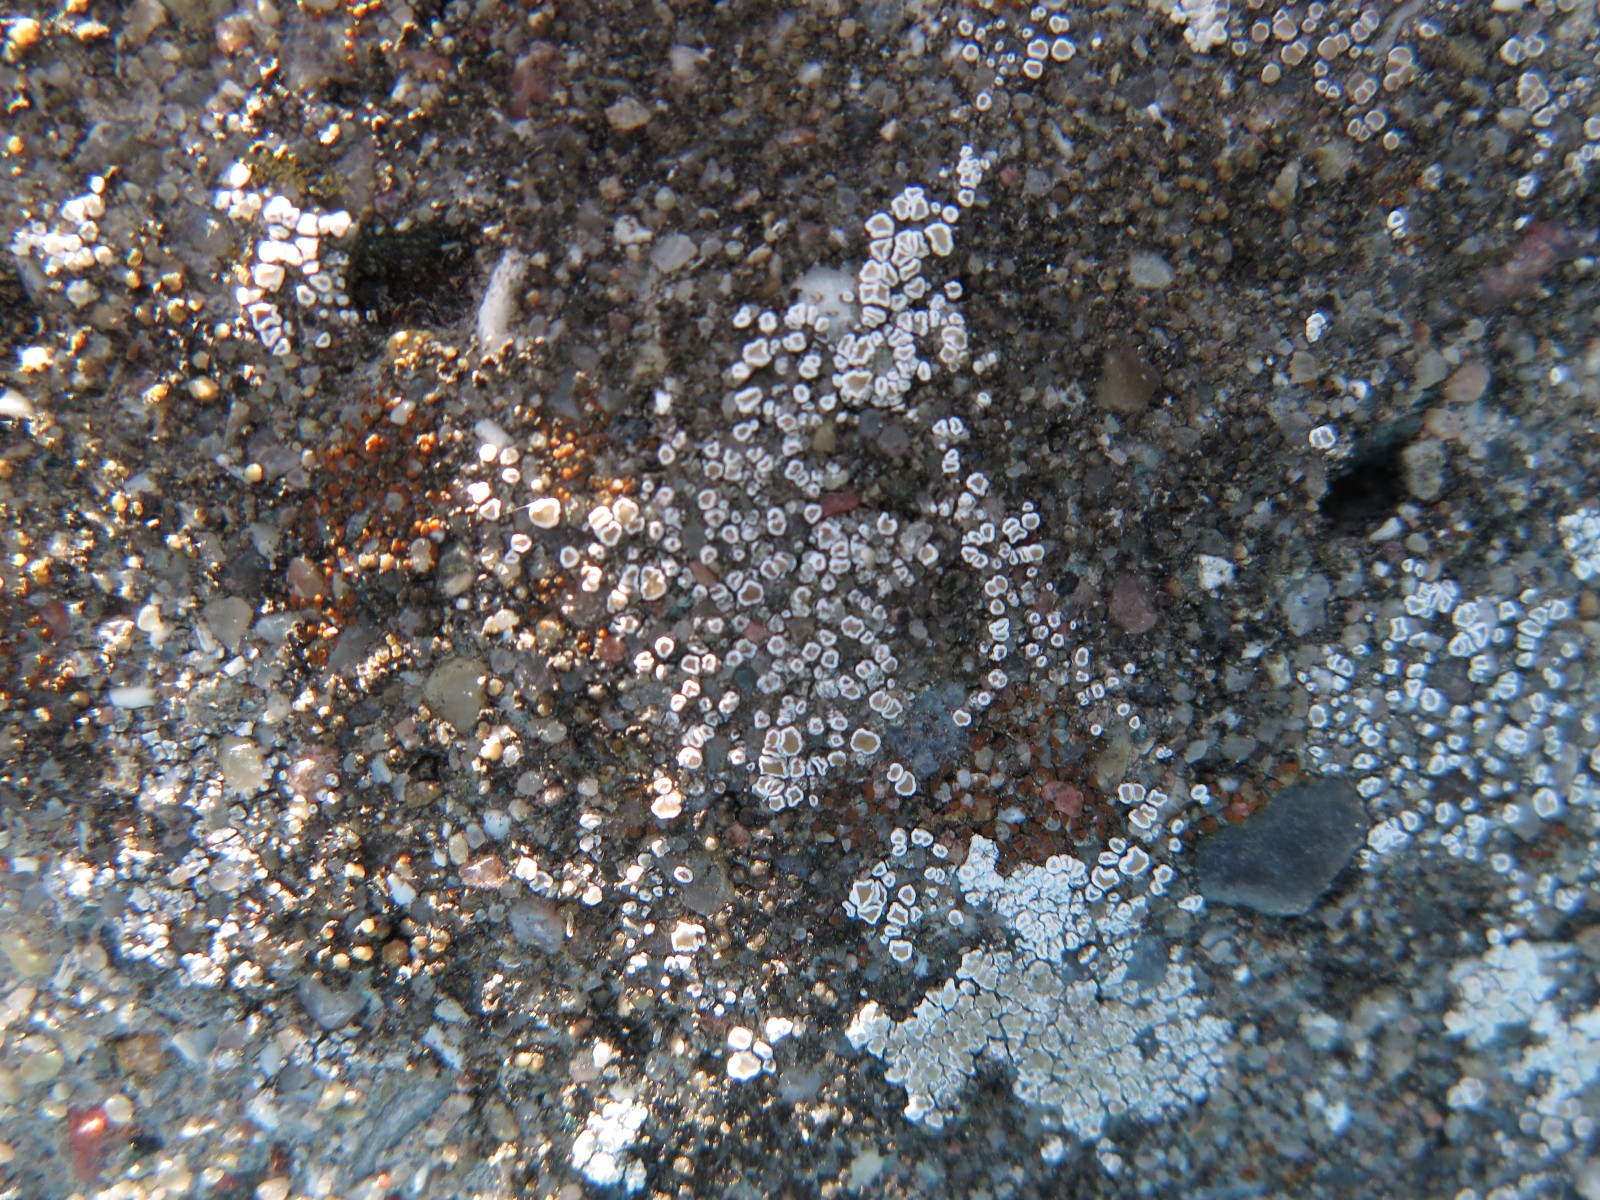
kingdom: Fungi
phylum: Ascomycota
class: Lecanoromycetes
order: Lecanorales
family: Lecanoraceae
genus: Polyozosia
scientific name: Polyozosia dispersa
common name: spredt kantskivelav
